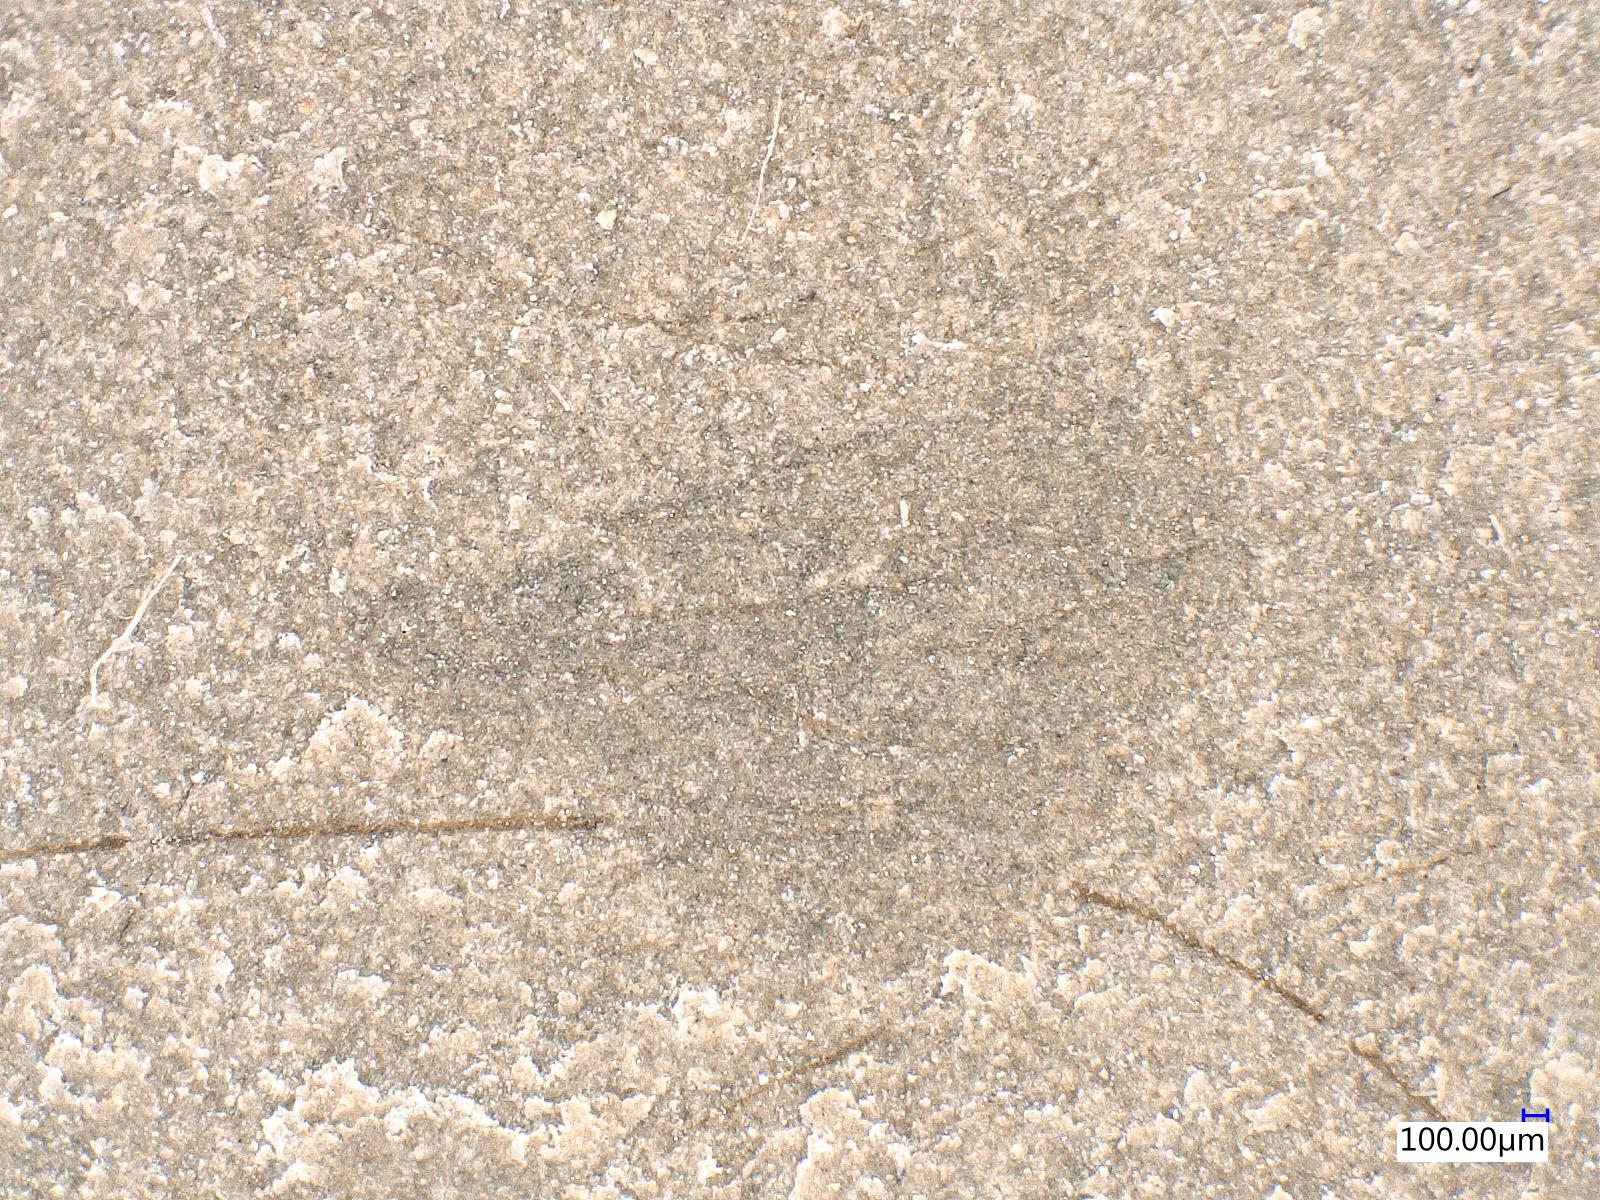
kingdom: Animalia
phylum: Arthropoda
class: Insecta
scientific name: Insecta
